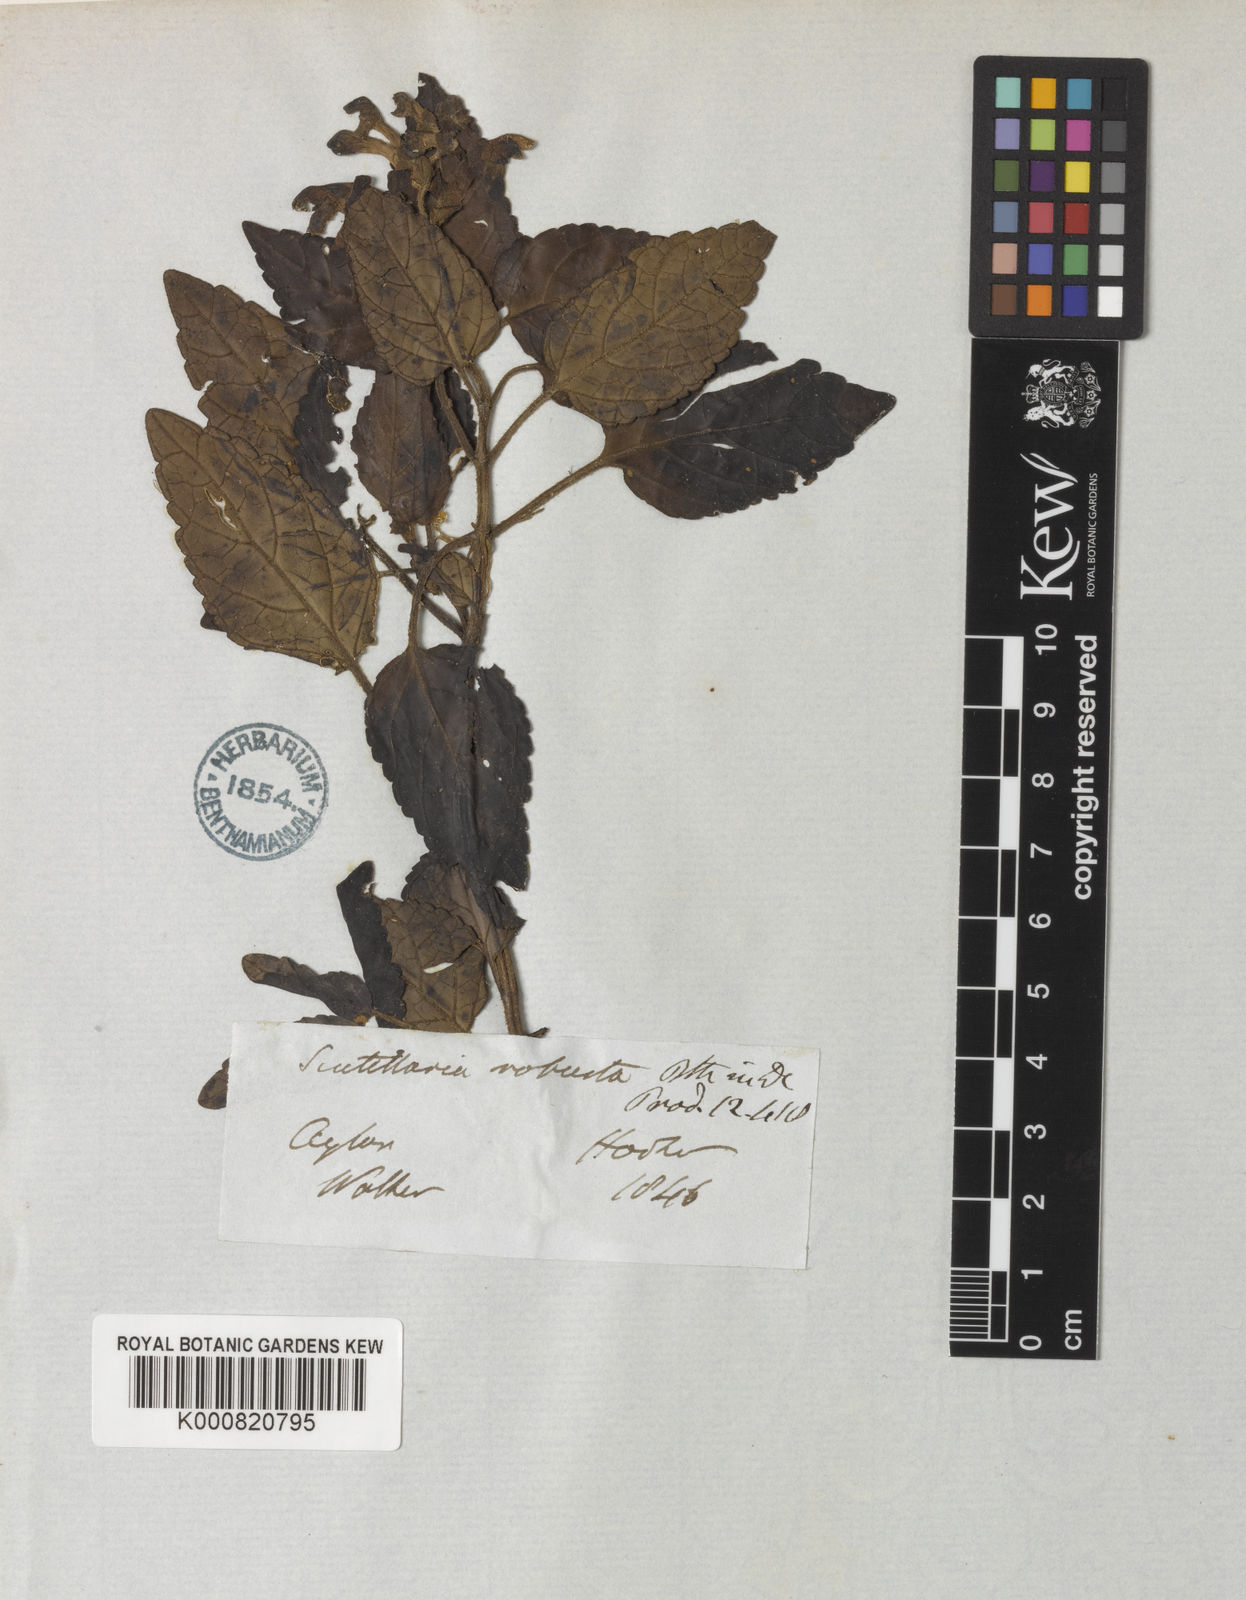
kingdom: Plantae
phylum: Tracheophyta
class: Magnoliopsida
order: Lamiales
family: Lamiaceae
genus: Scutellaria
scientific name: Scutellaria violacea
